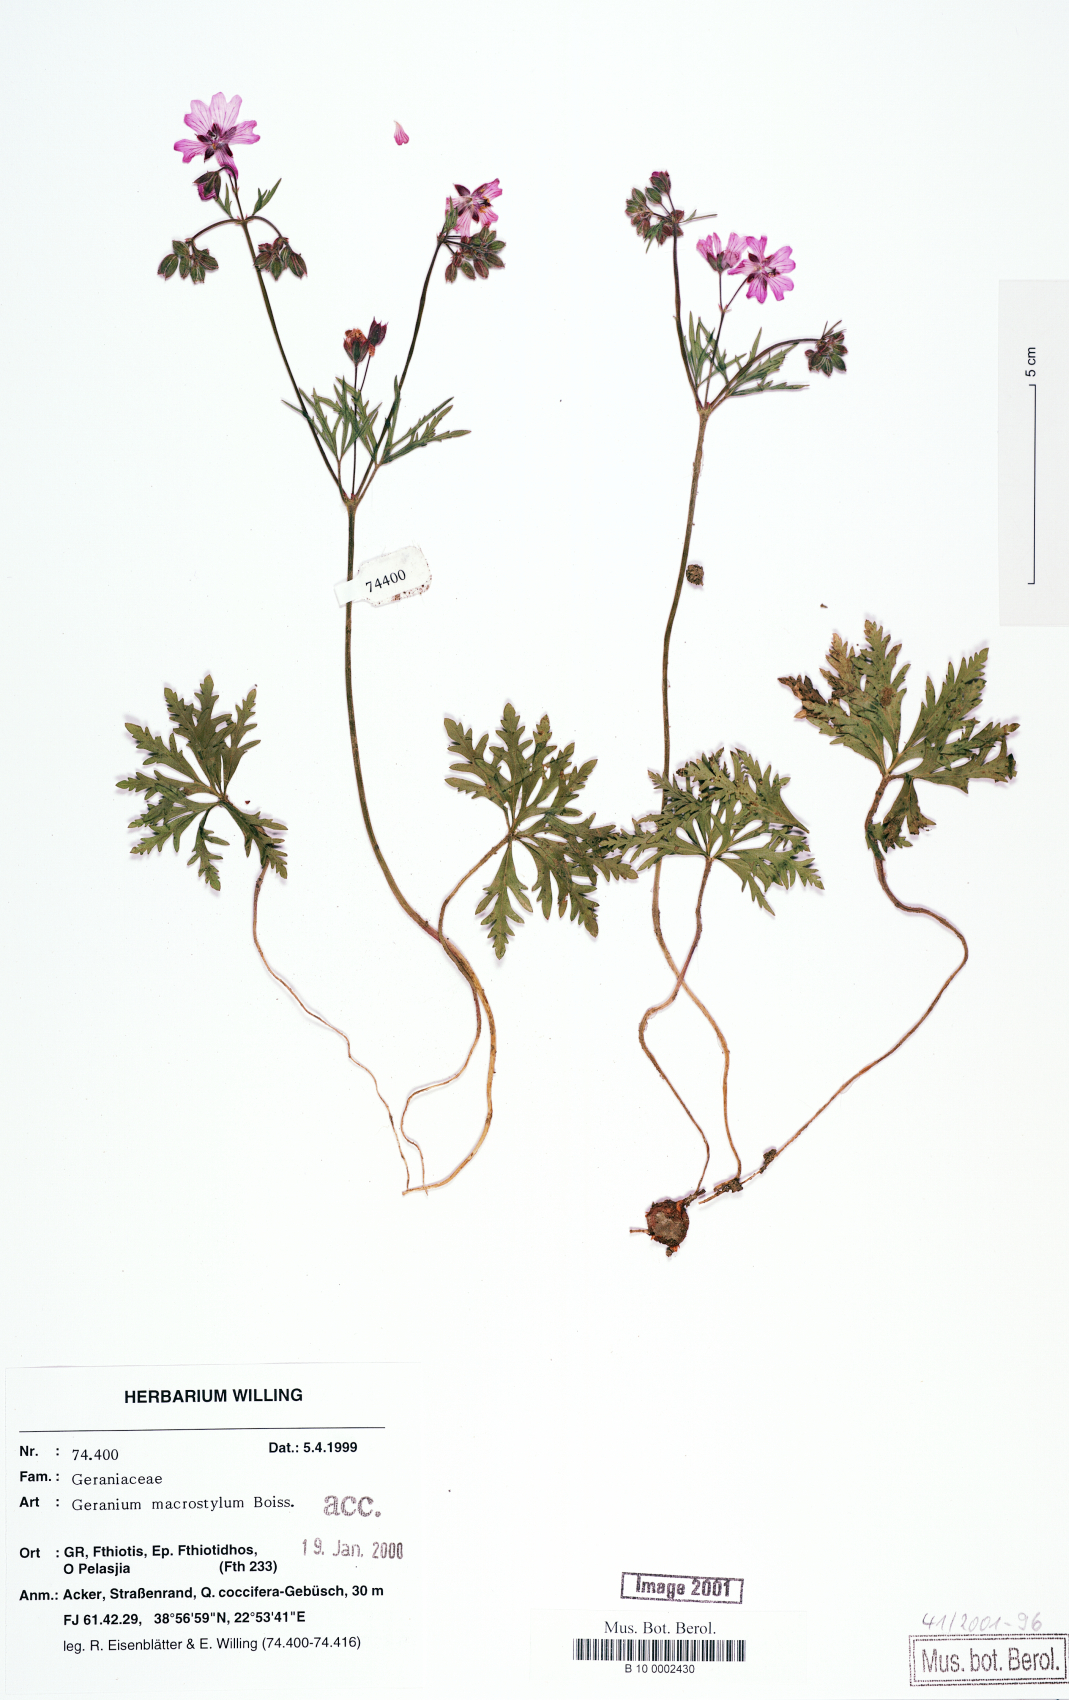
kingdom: Plantae
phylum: Tracheophyta
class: Magnoliopsida
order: Geraniales
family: Geraniaceae
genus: Geranium
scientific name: Geranium macrostylum
